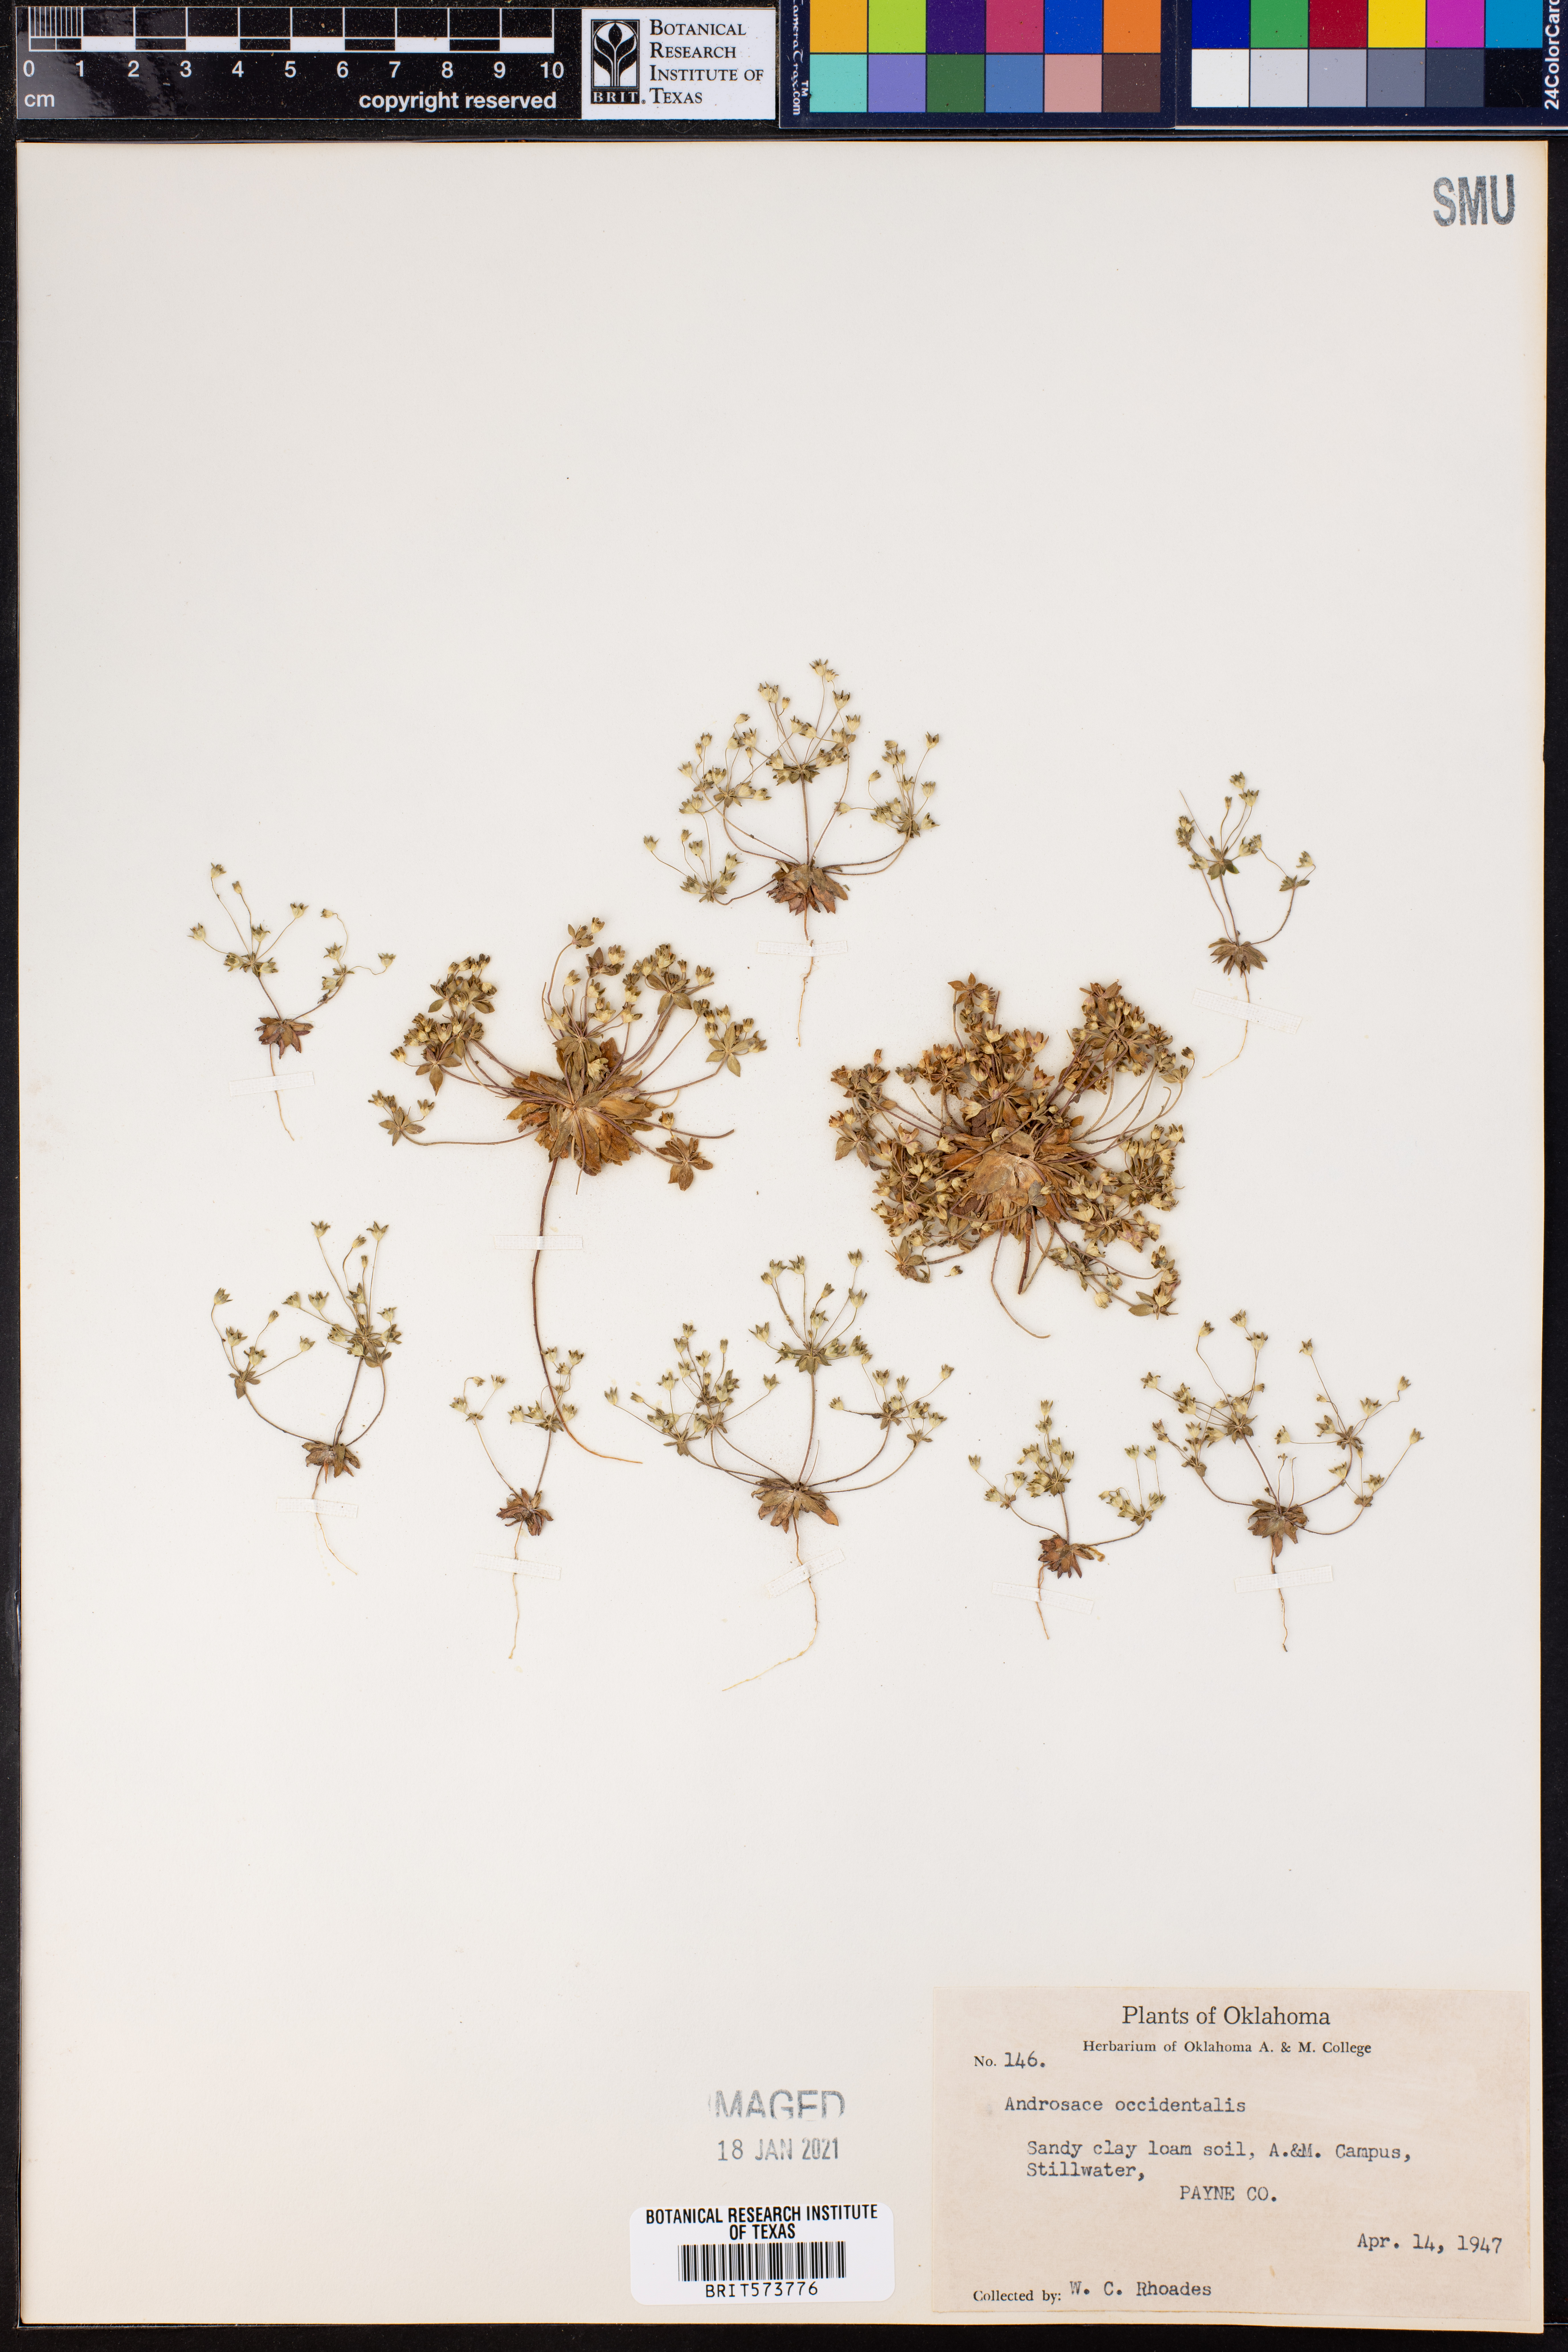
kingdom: Plantae
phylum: Tracheophyta
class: Magnoliopsida
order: Ericales
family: Primulaceae
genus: Androsace
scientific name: Androsace occidentalis
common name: West rock-jasmine
